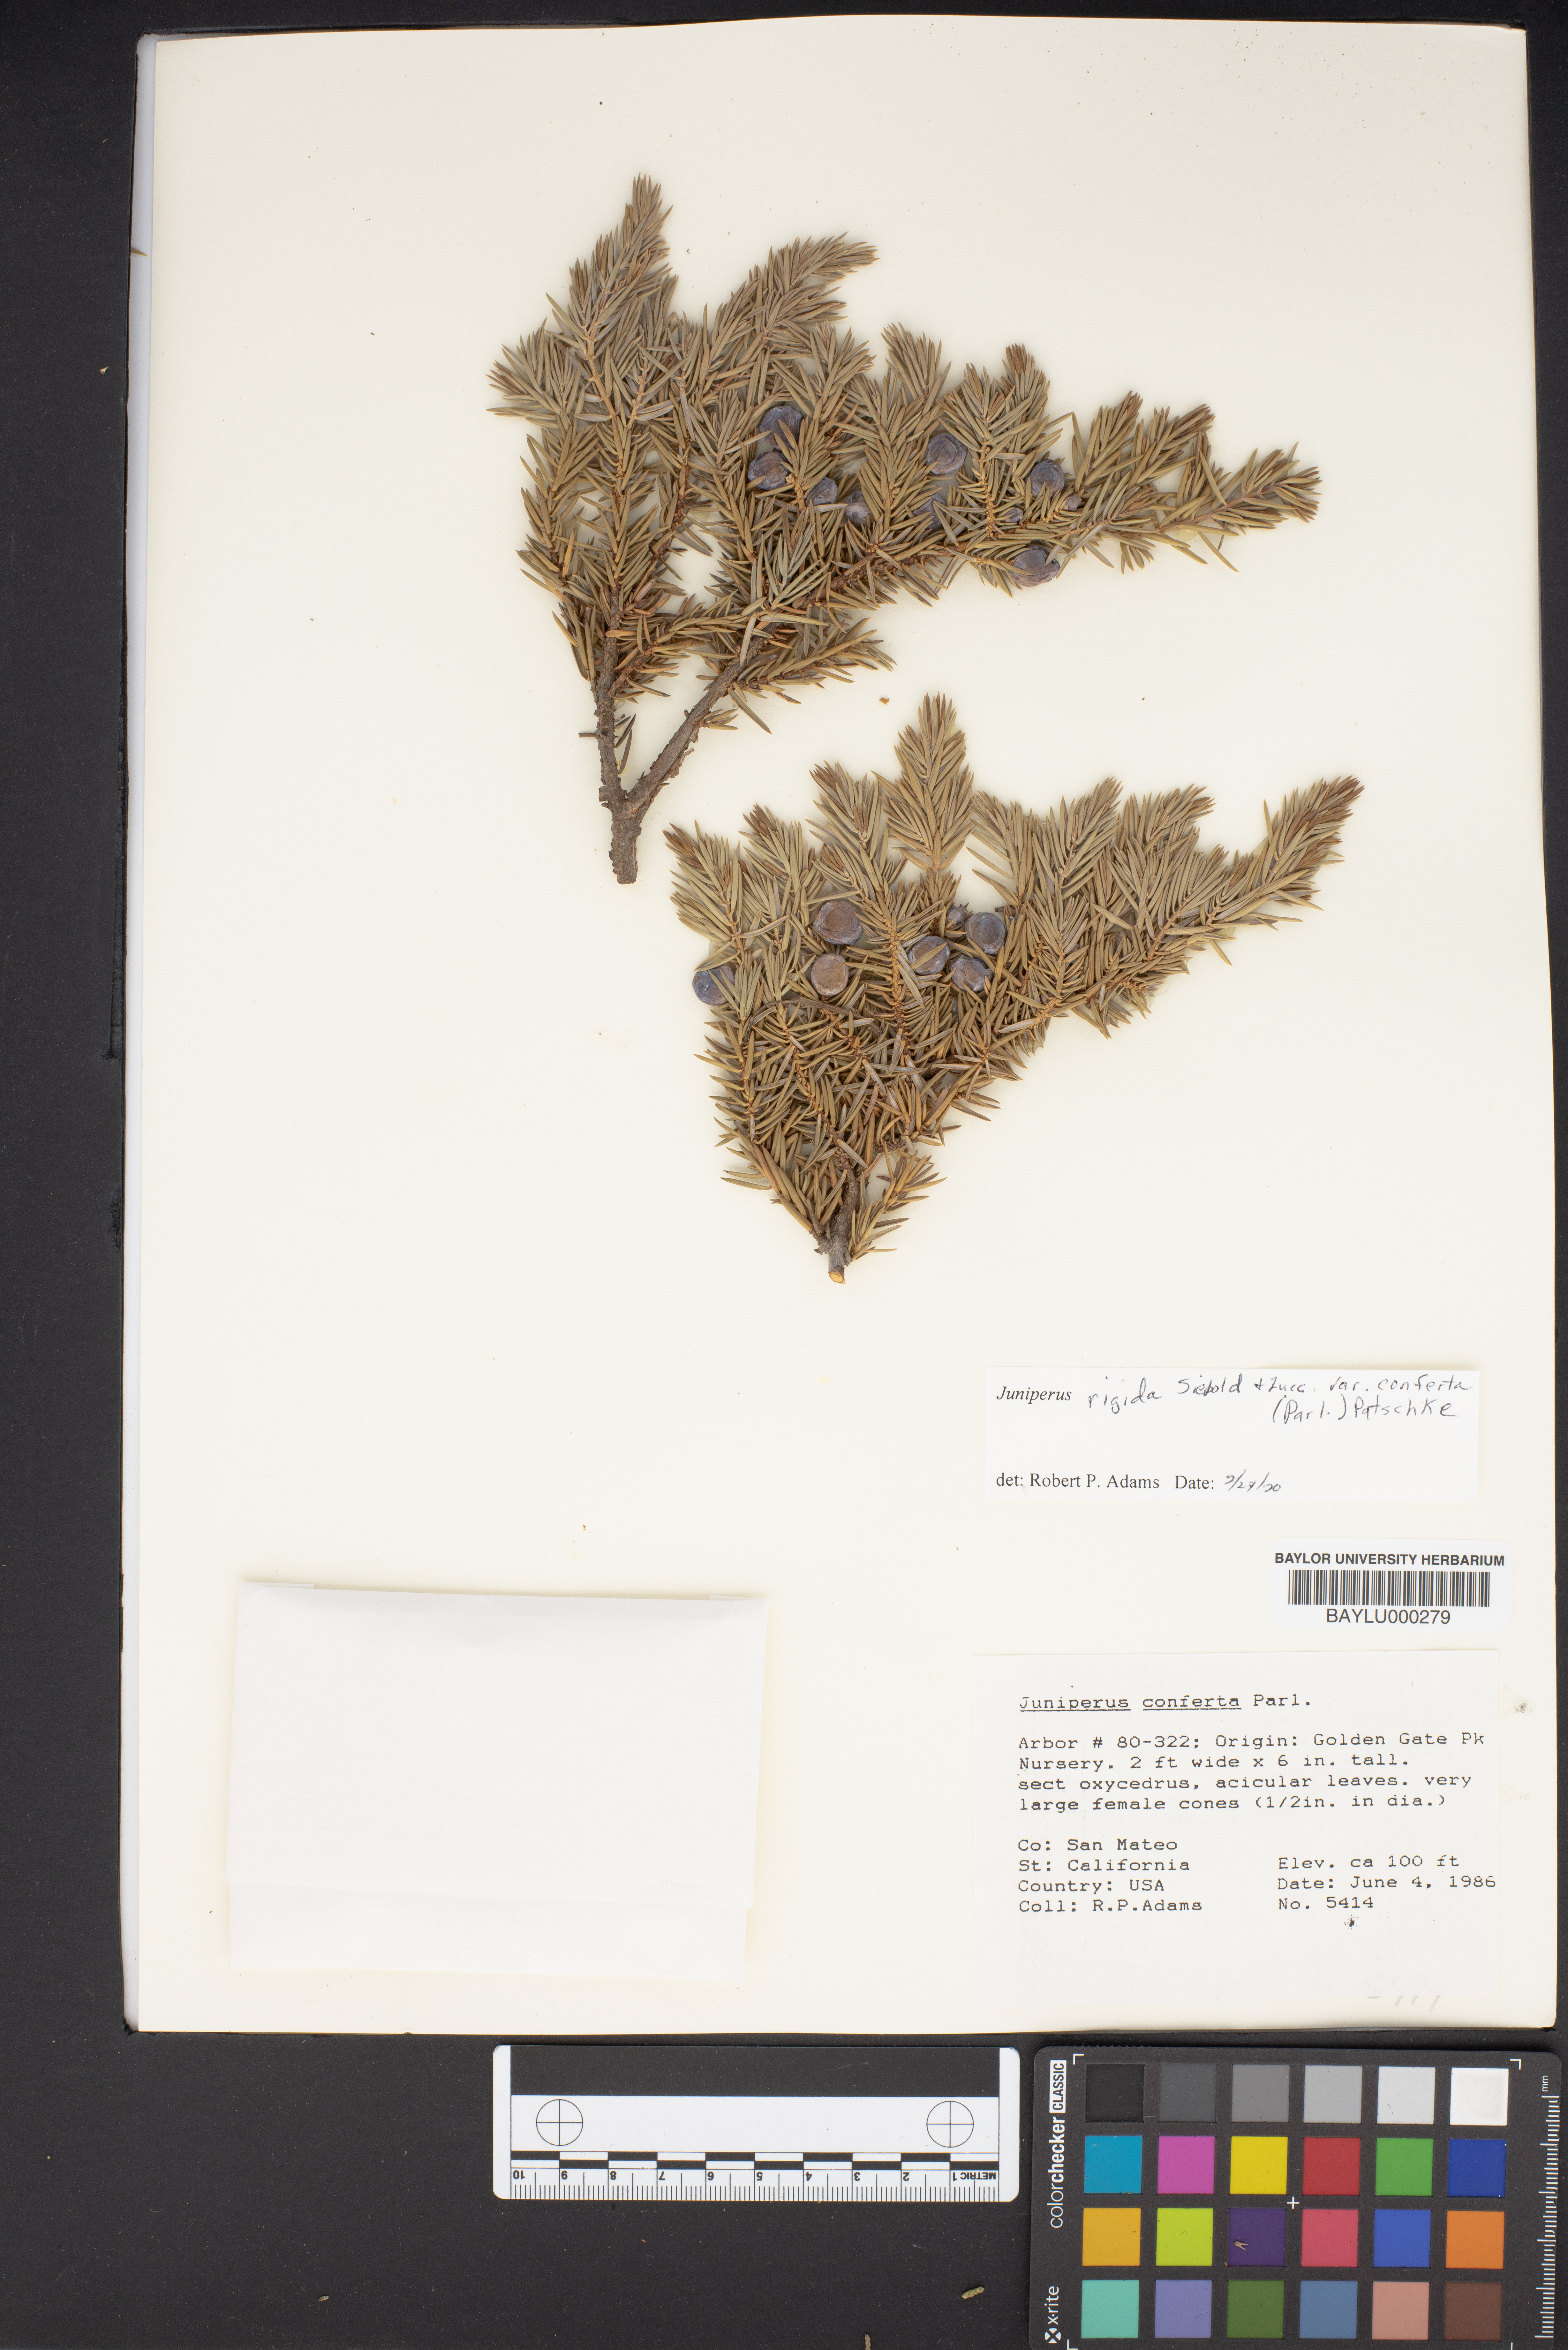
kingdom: Plantae
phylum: Tracheophyta
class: Pinopsida
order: Pinales
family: Cupressaceae
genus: Juniperus
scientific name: Juniperus rigida
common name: Needle juniper
